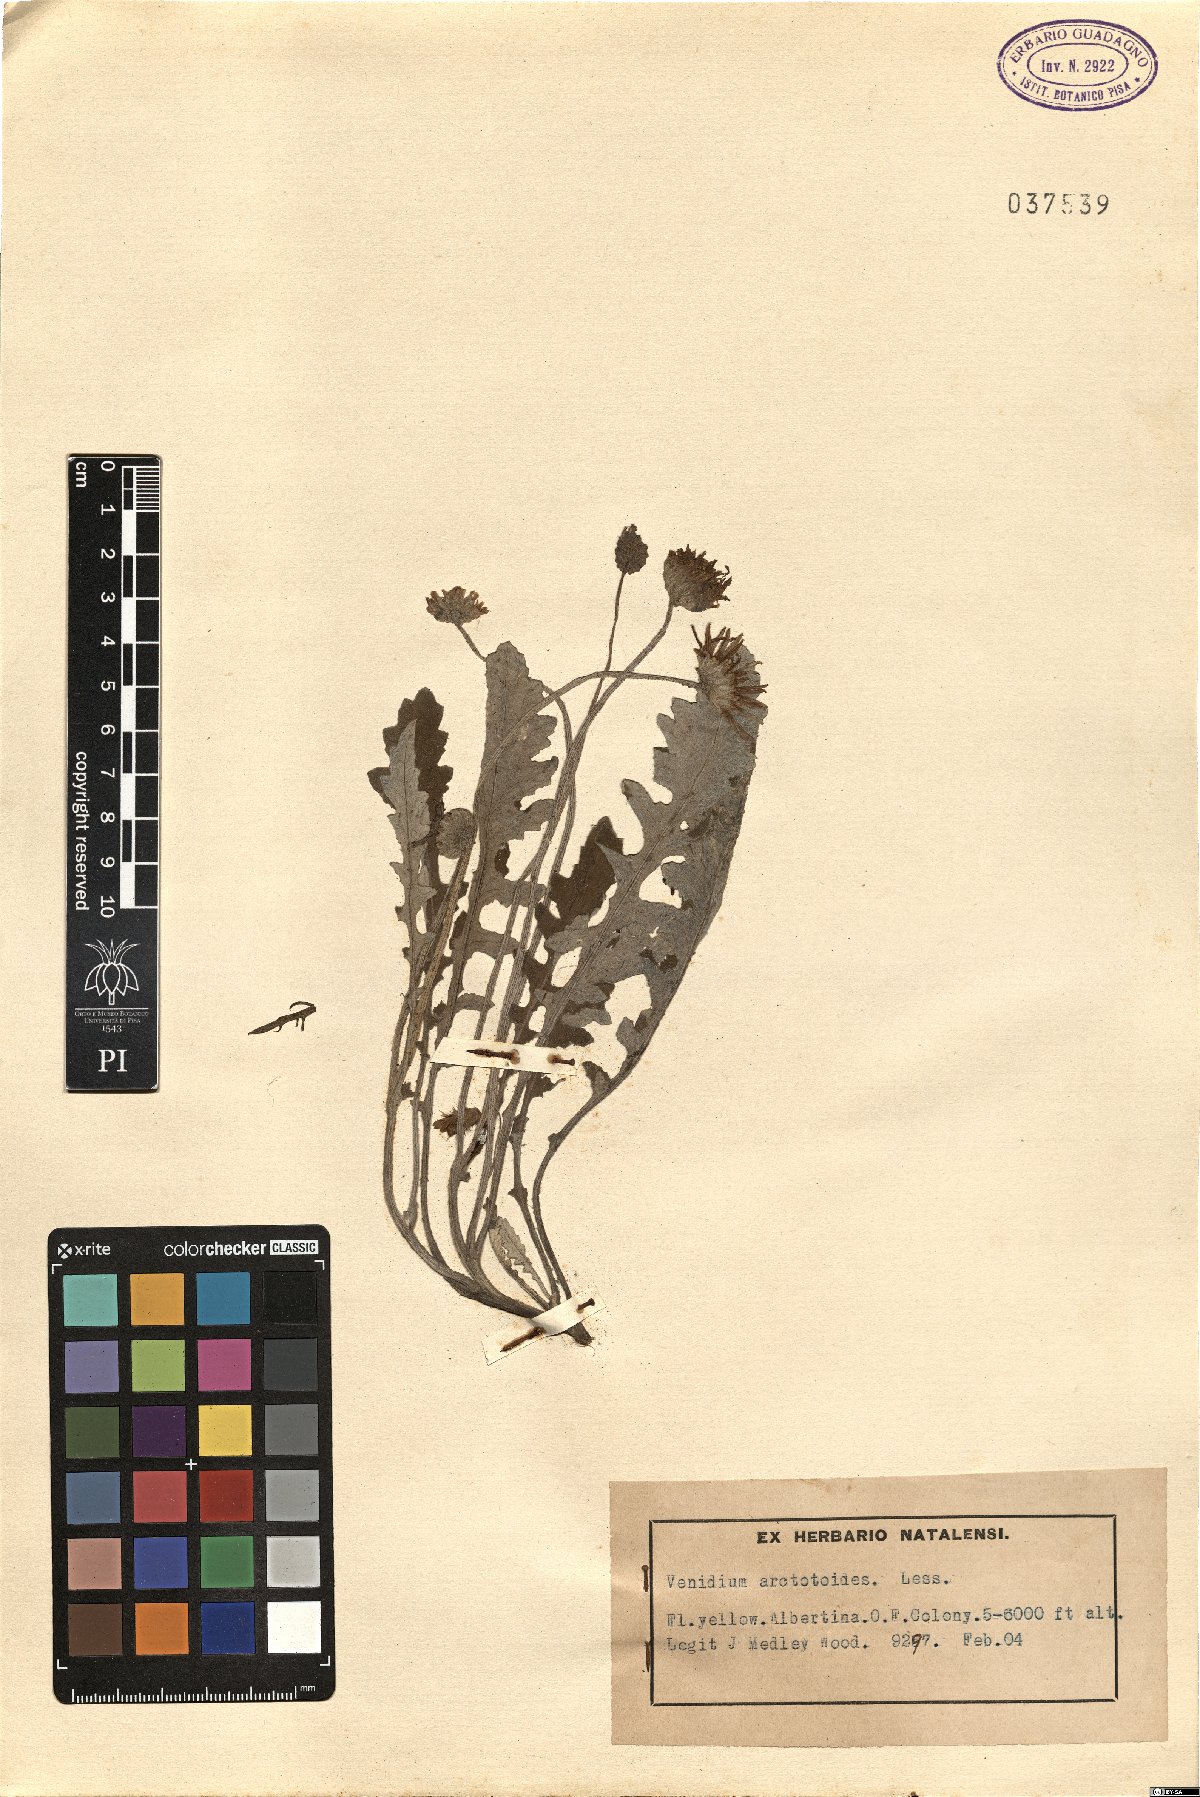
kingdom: Plantae
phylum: Tracheophyta
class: Magnoliopsida
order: Asterales
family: Asteraceae
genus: Arctotis
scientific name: Arctotis arctotoides
